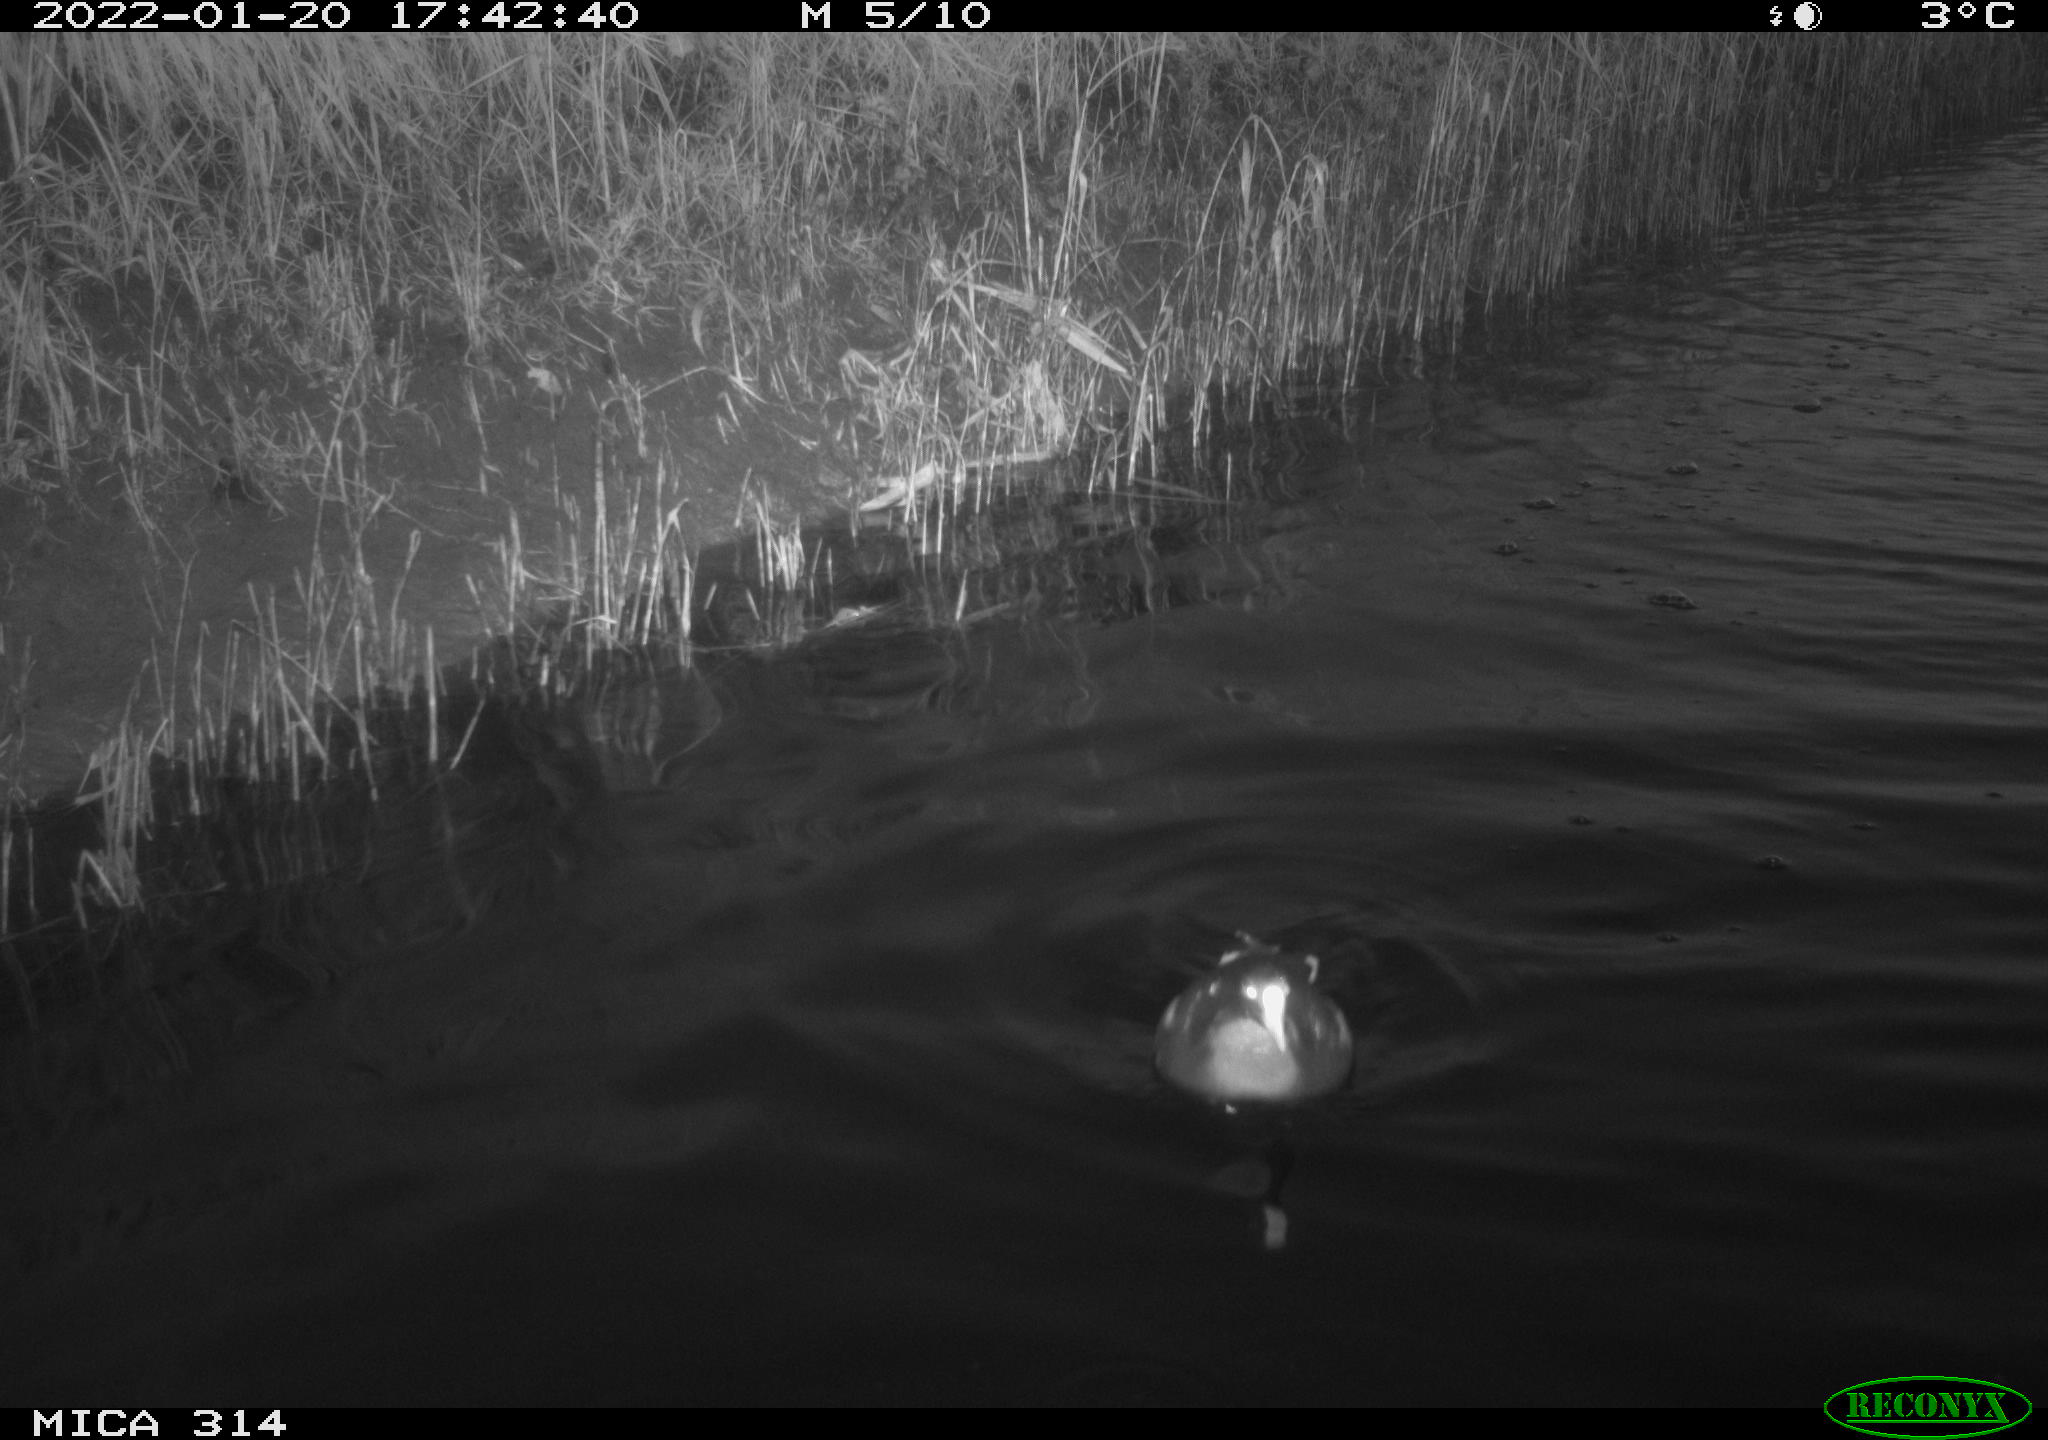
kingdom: Animalia
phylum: Chordata
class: Aves
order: Anseriformes
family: Anatidae
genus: Anas
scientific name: Anas
